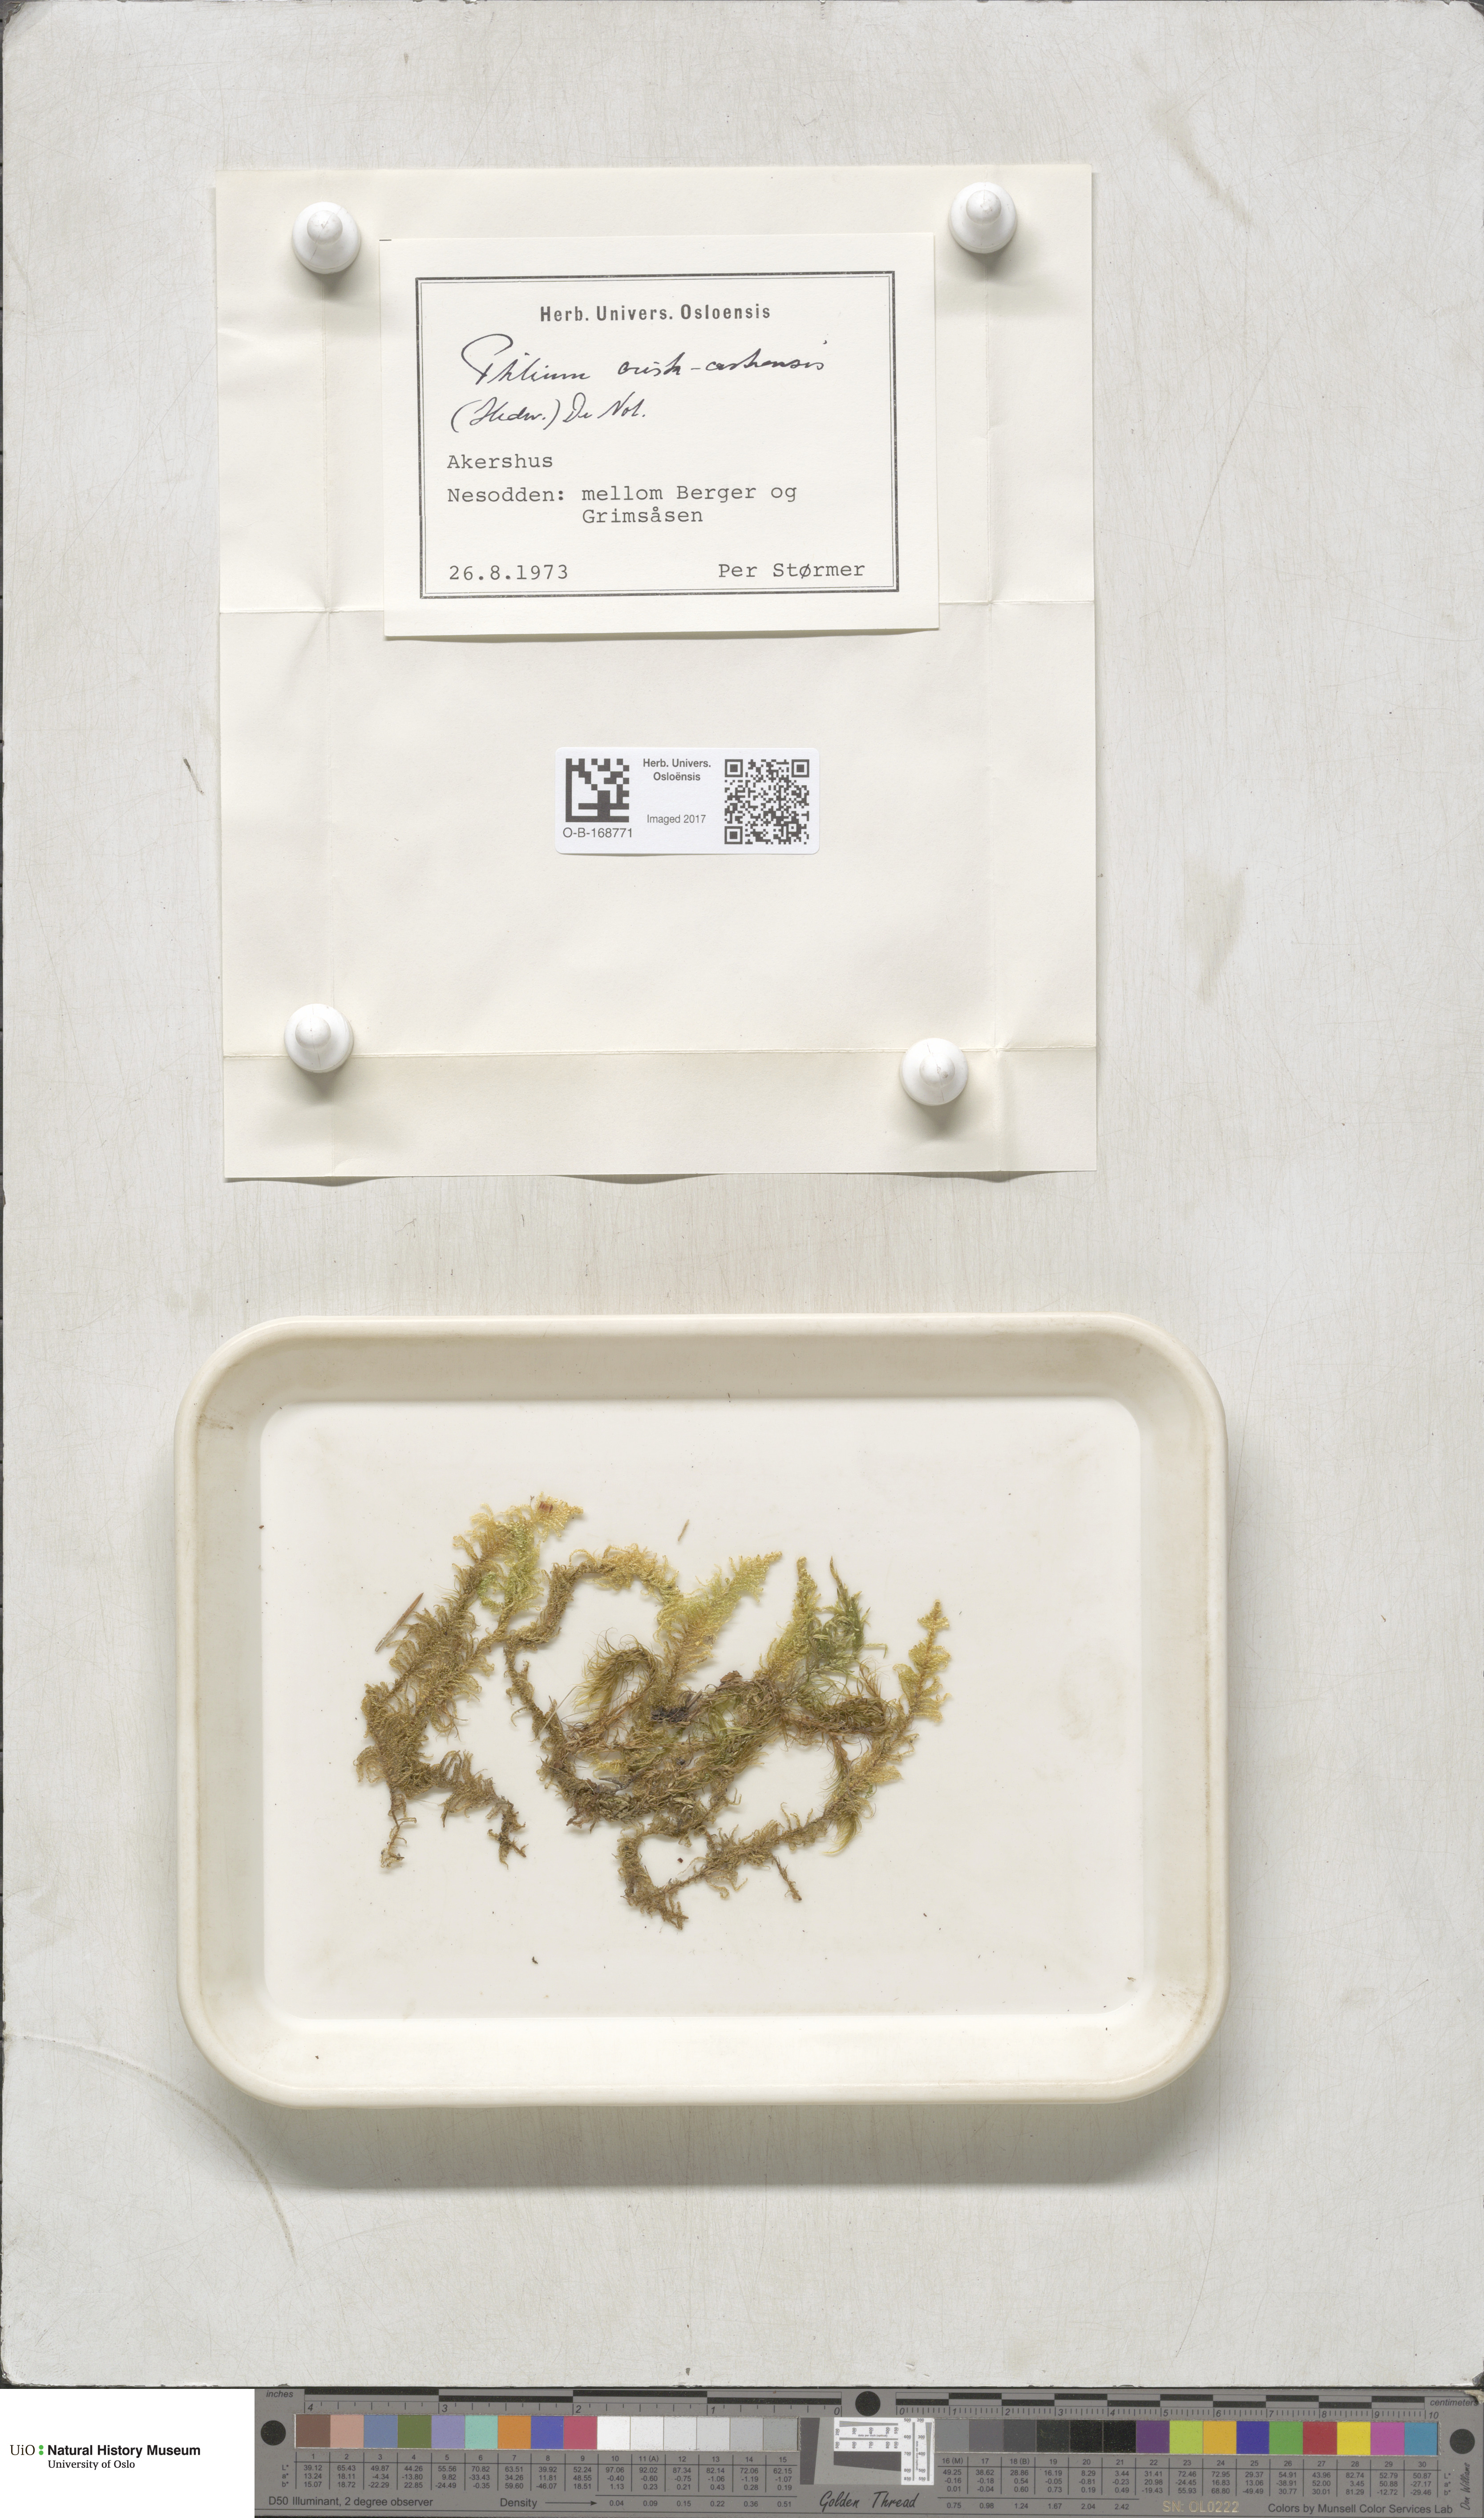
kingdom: Plantae
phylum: Bryophyta
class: Bryopsida
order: Hypnales
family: Pylaisiaceae
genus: Ptilium
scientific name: Ptilium crista-castrensis
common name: Knight's plume moss
